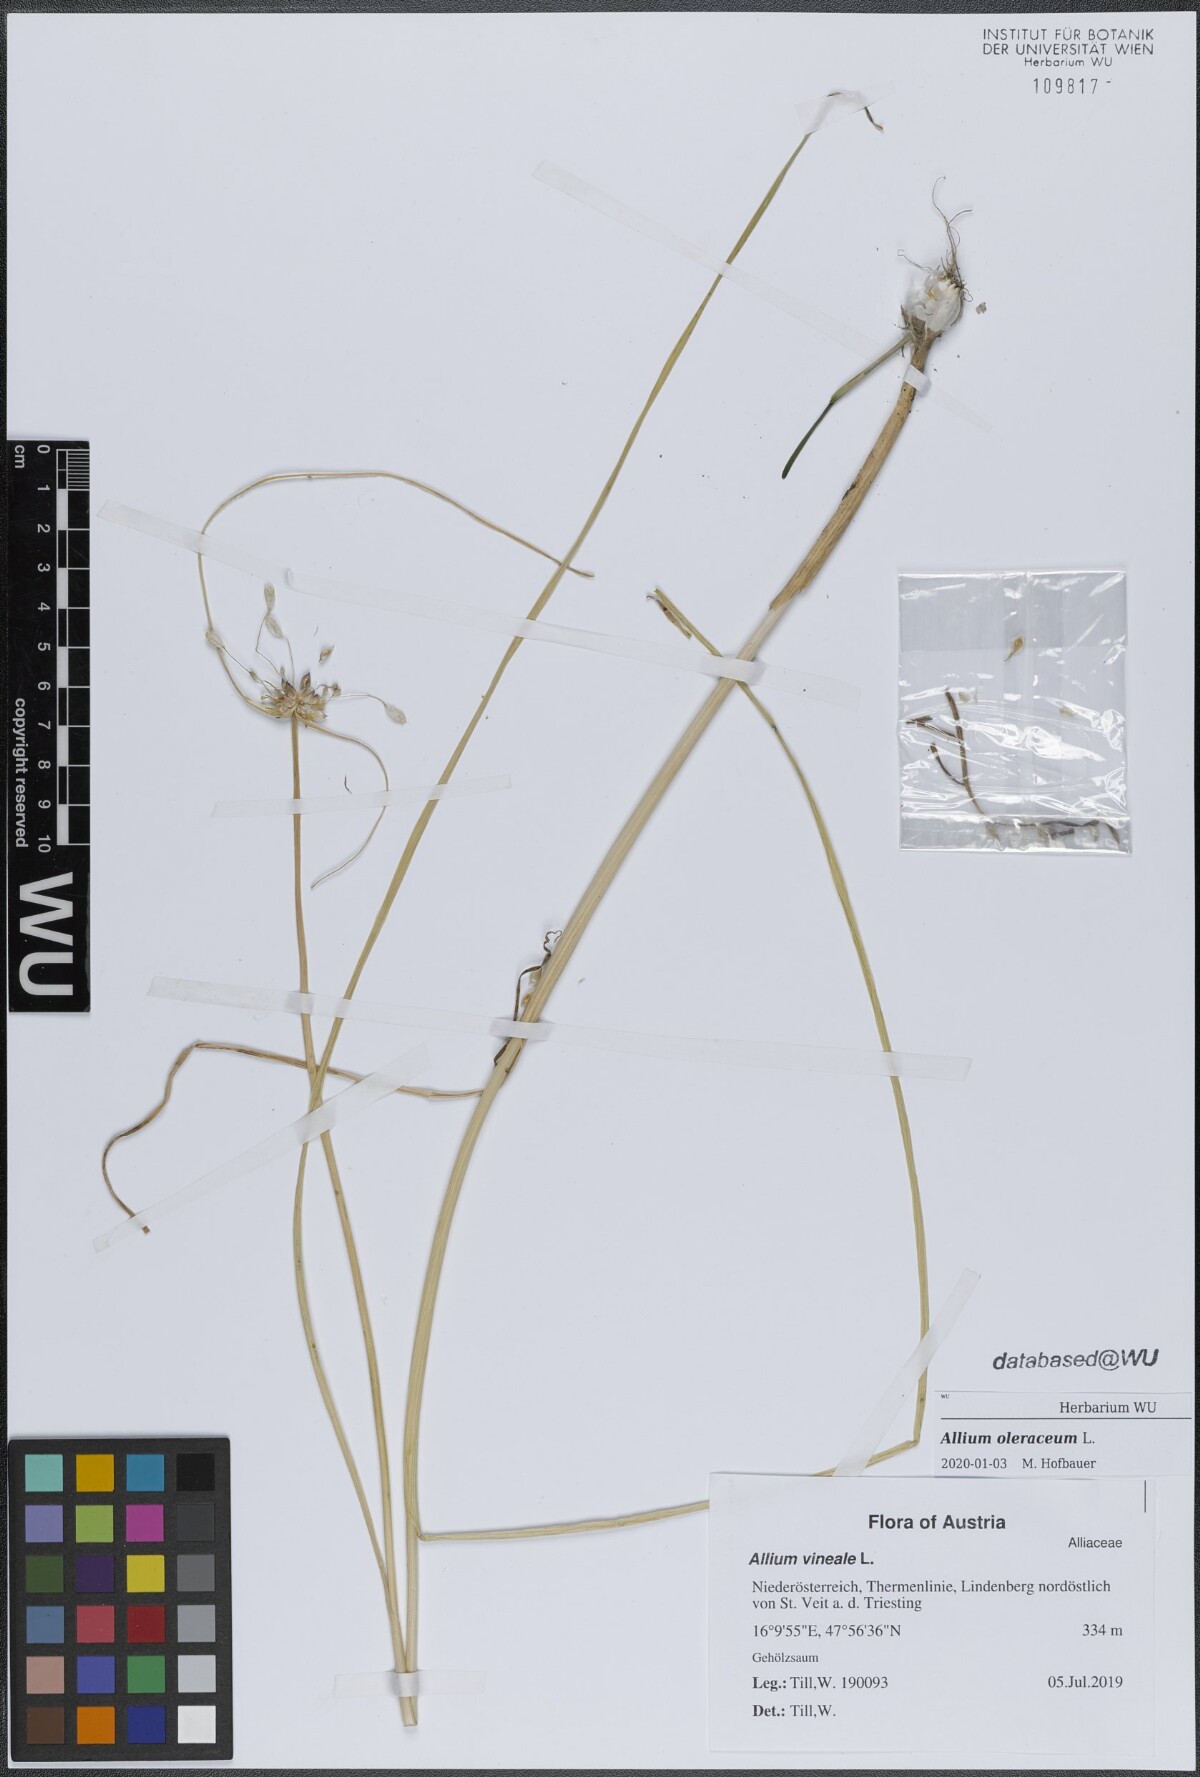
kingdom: Plantae
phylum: Tracheophyta
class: Liliopsida
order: Asparagales
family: Amaryllidaceae
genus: Allium
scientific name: Allium oleraceum
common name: Field garlic
